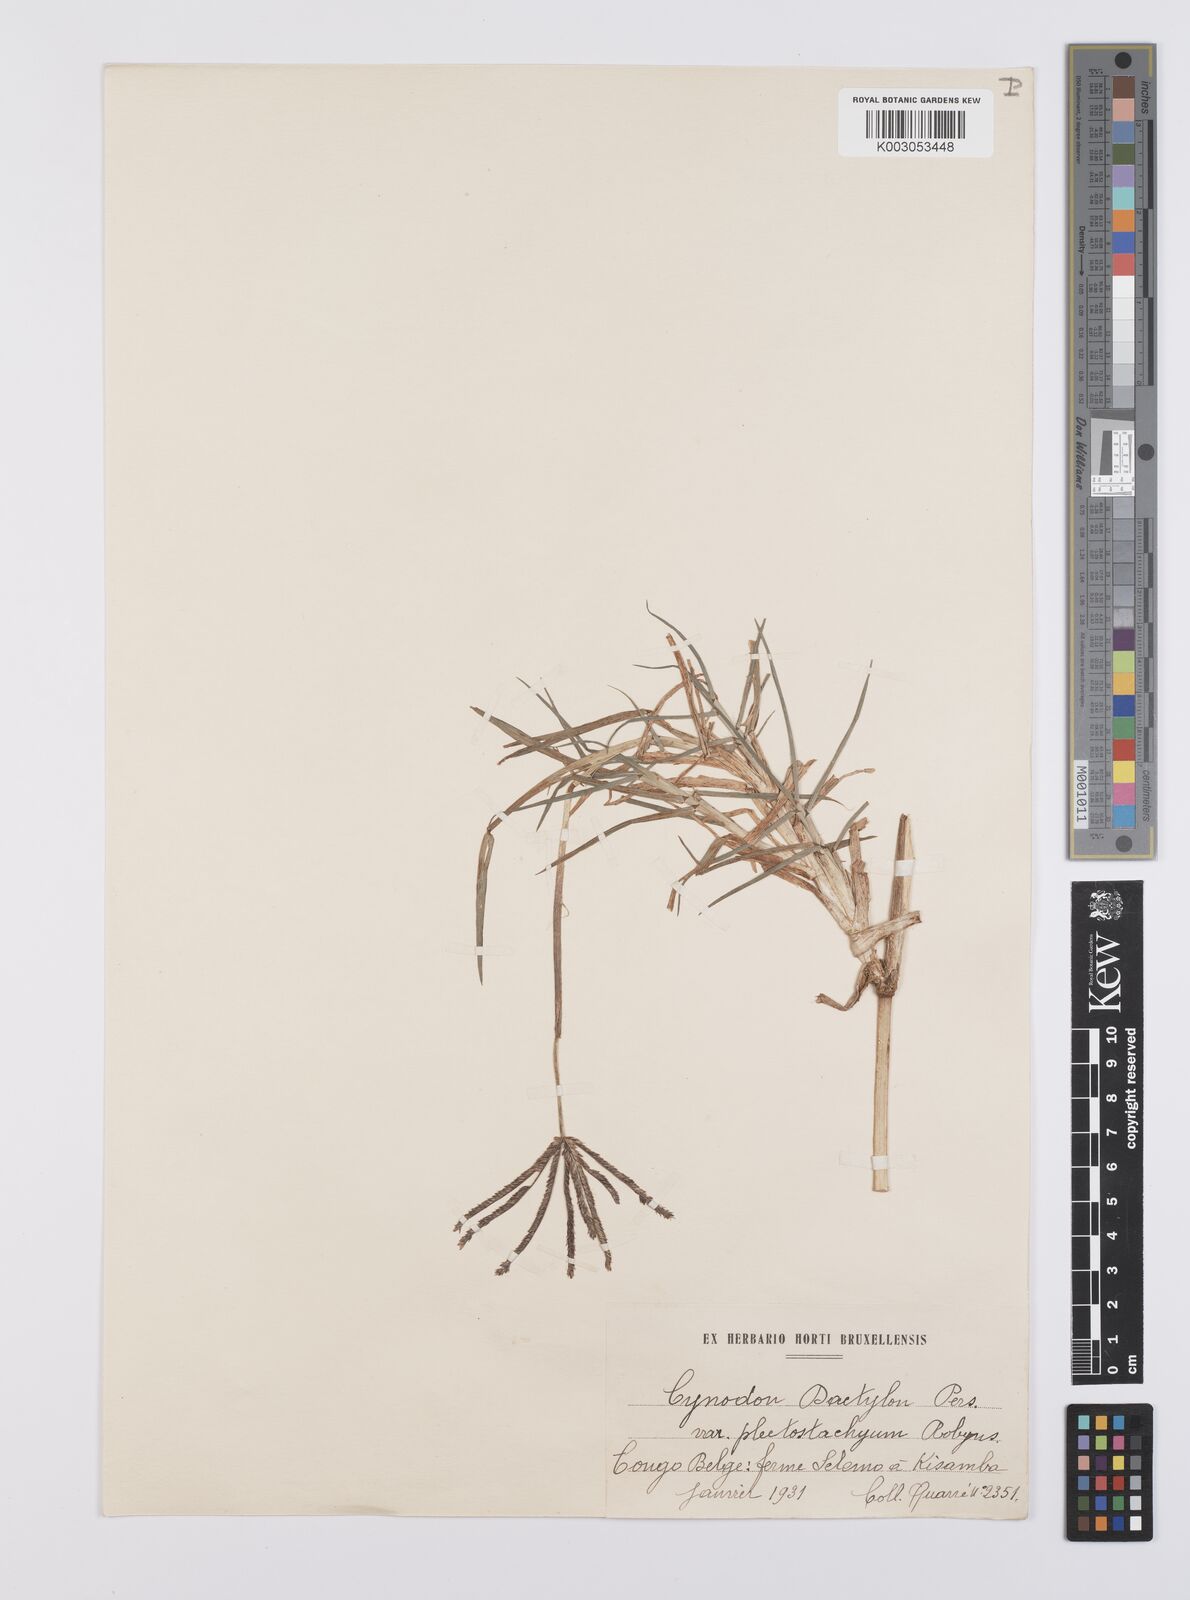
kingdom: Plantae
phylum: Tracheophyta
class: Liliopsida
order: Poales
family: Poaceae
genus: Cynodon
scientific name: Cynodon aethiopicus
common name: Ethiopian dogstooth grass
